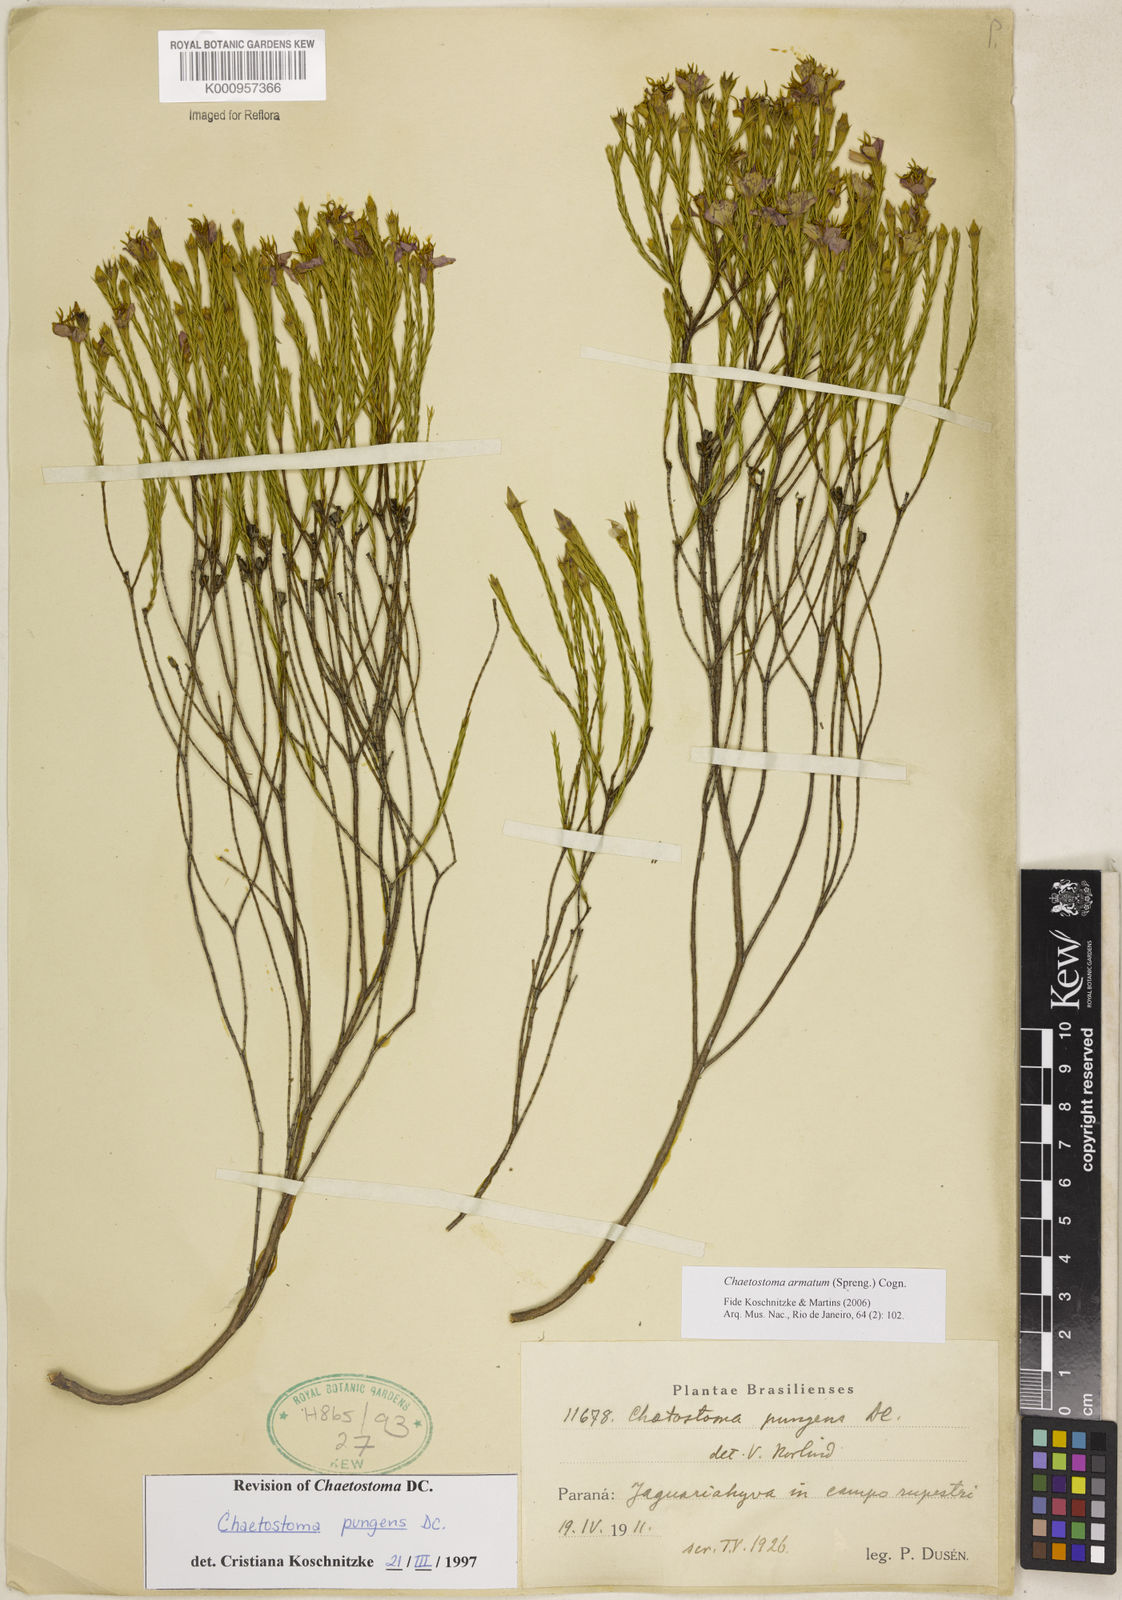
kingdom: Plantae
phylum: Tracheophyta
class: Magnoliopsida
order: Myrtales
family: Melastomataceae
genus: Microlicia
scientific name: Microlicia armata
